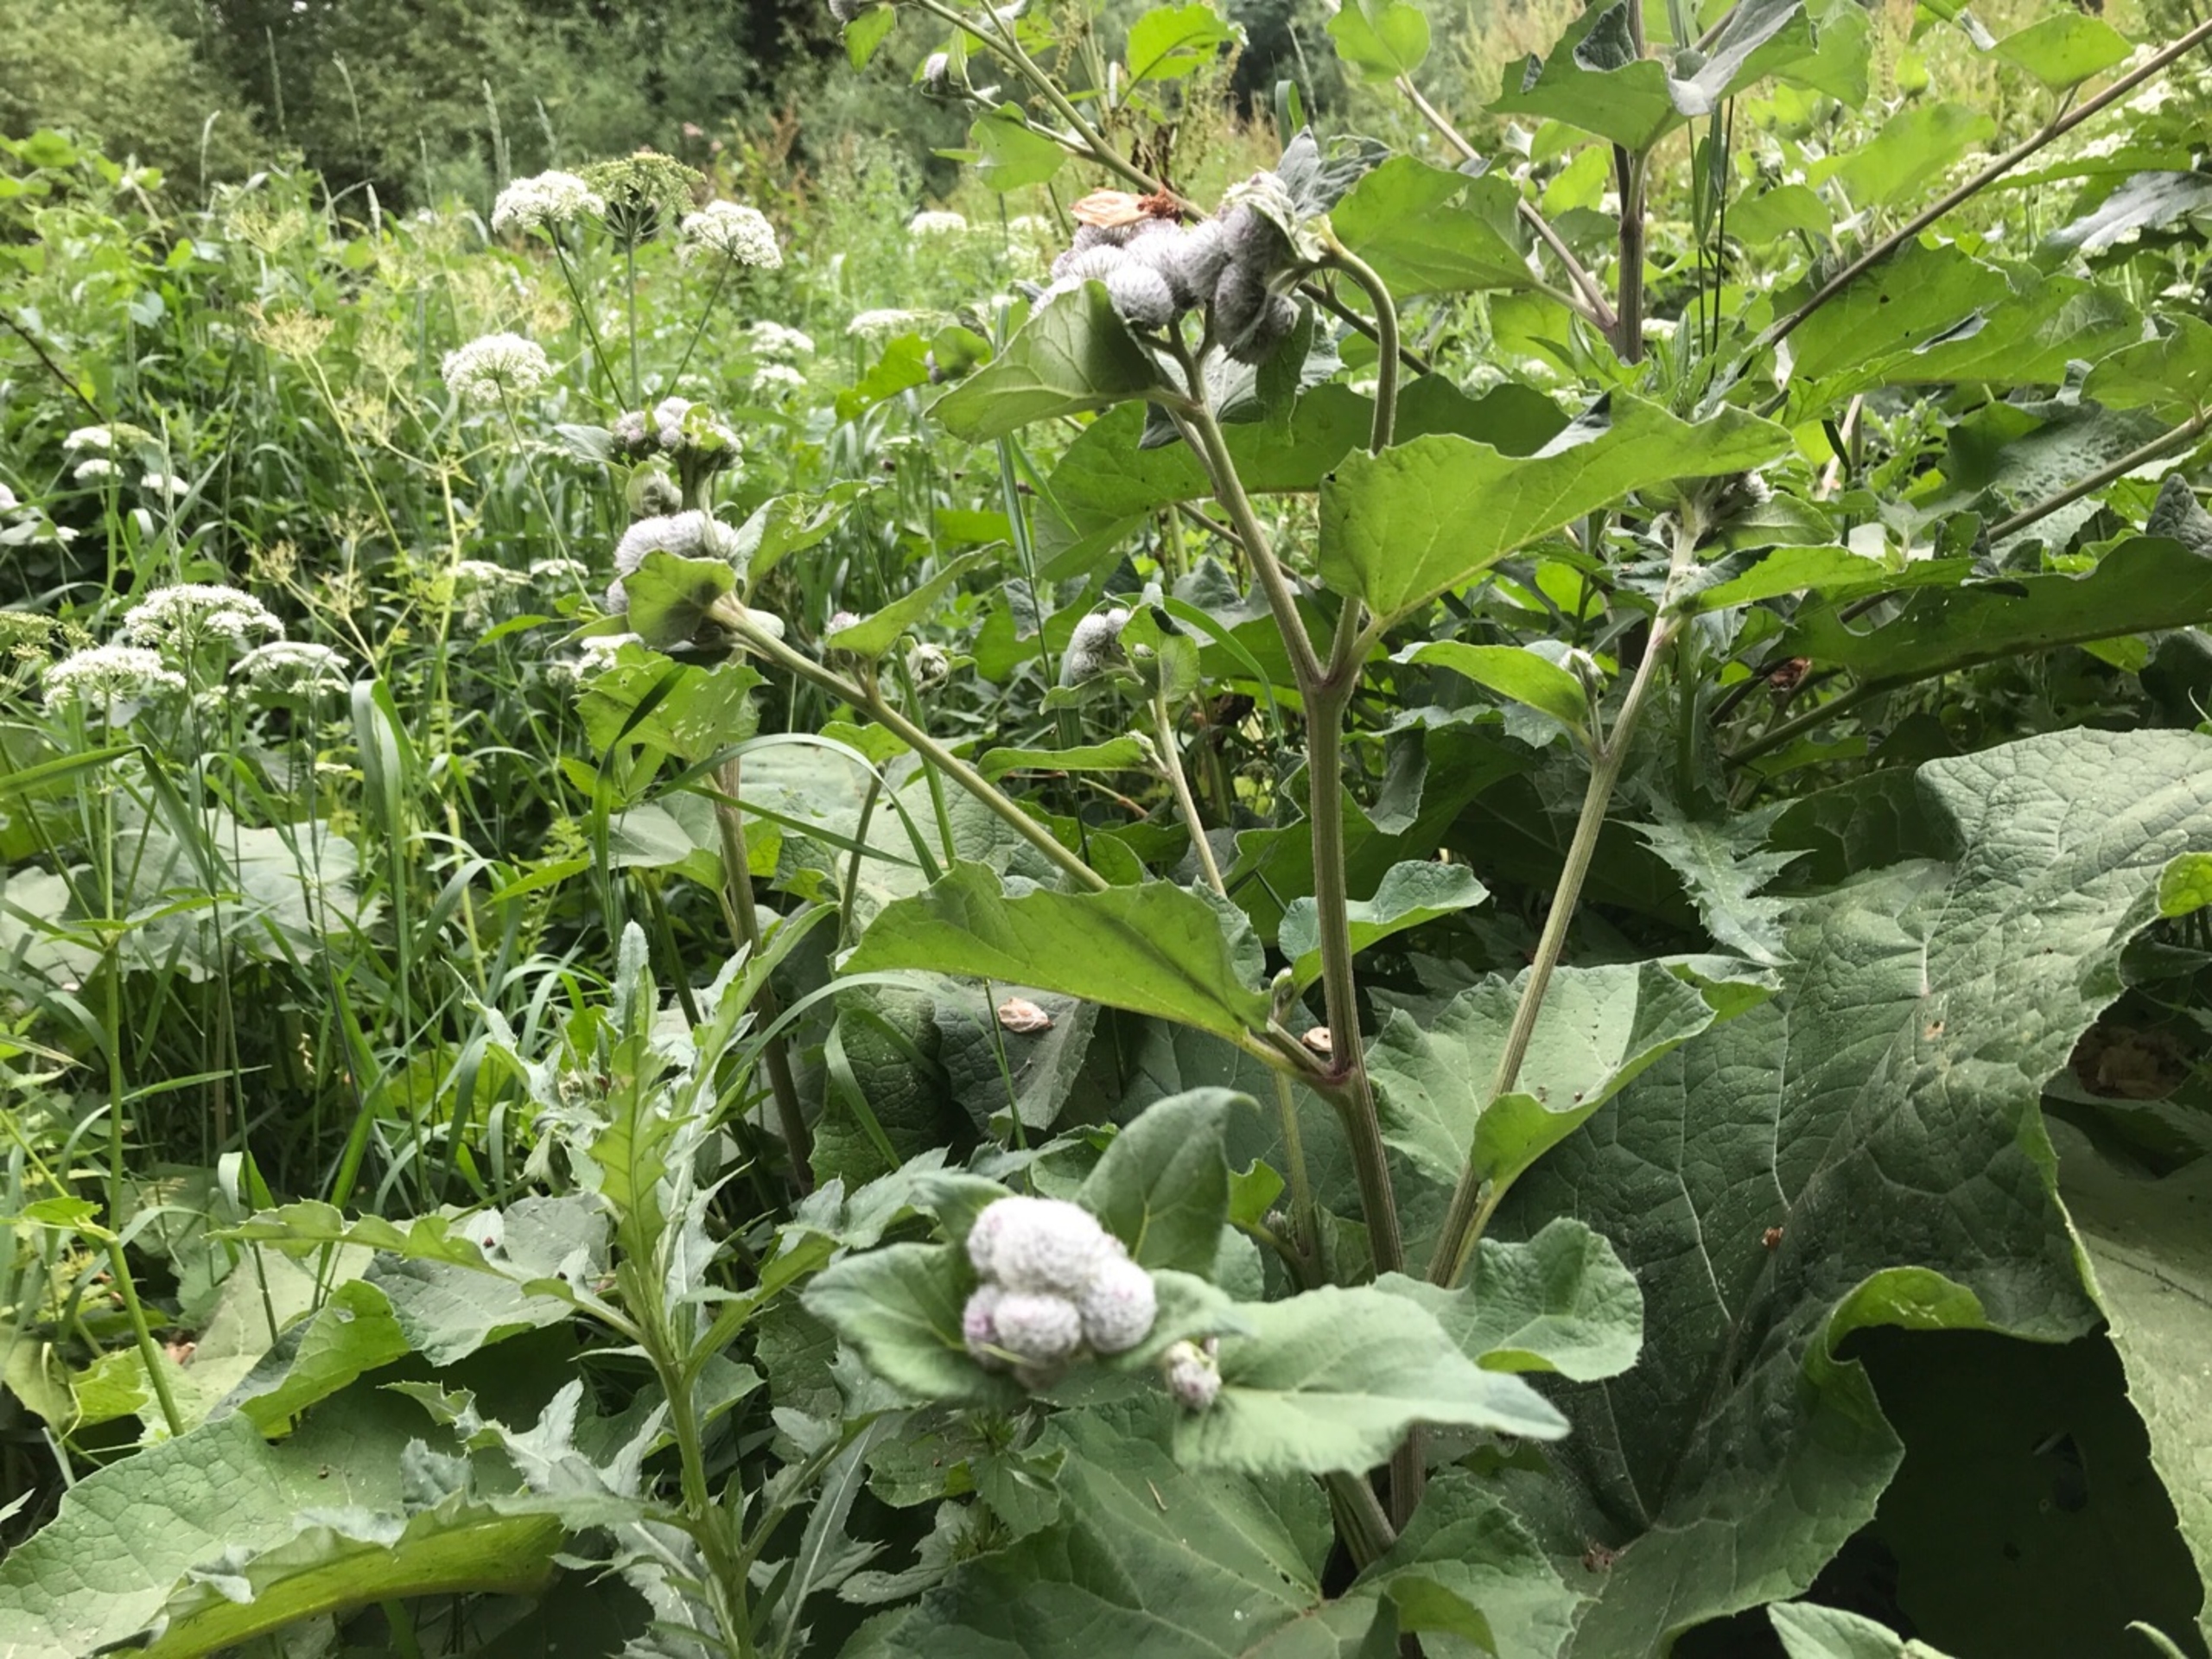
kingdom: Plantae
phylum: Tracheophyta
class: Magnoliopsida
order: Asterales
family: Asteraceae
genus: Arctium
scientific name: Arctium tomentosum
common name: Filtet burre
